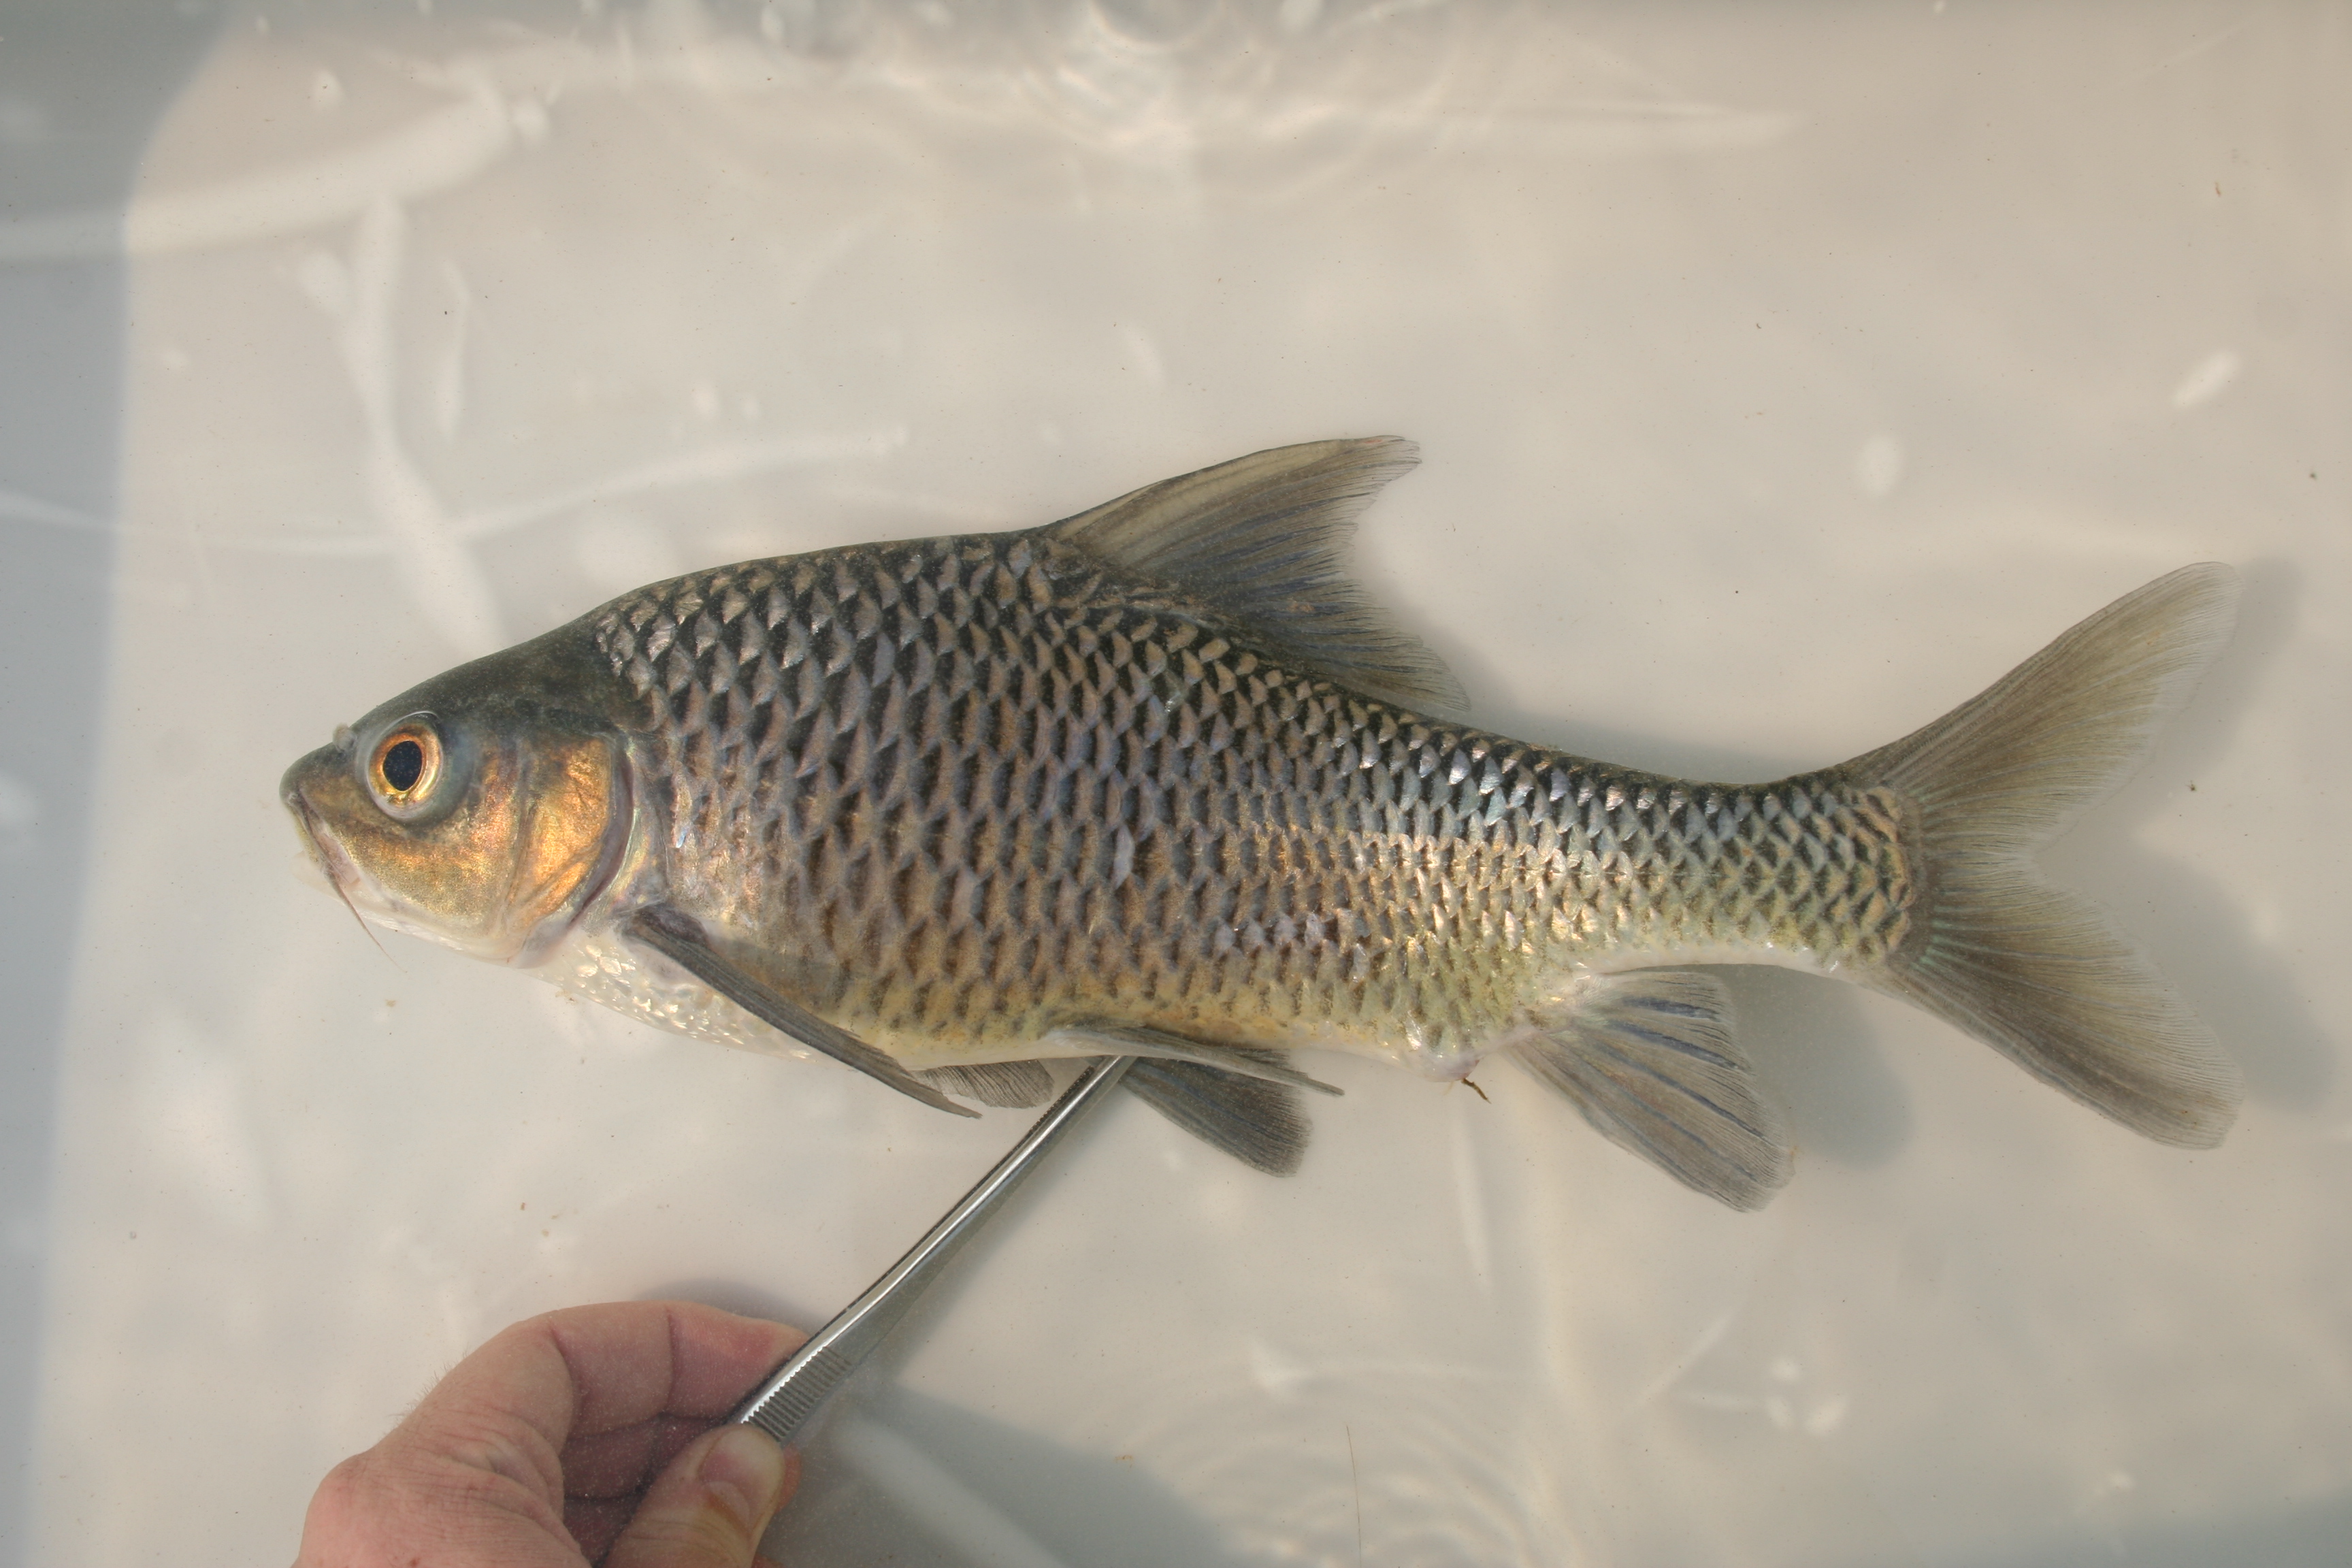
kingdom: Animalia
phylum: Chordata
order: Cypriniformes
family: Cyprinidae
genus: Labeobarbus
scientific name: Labeobarbus
